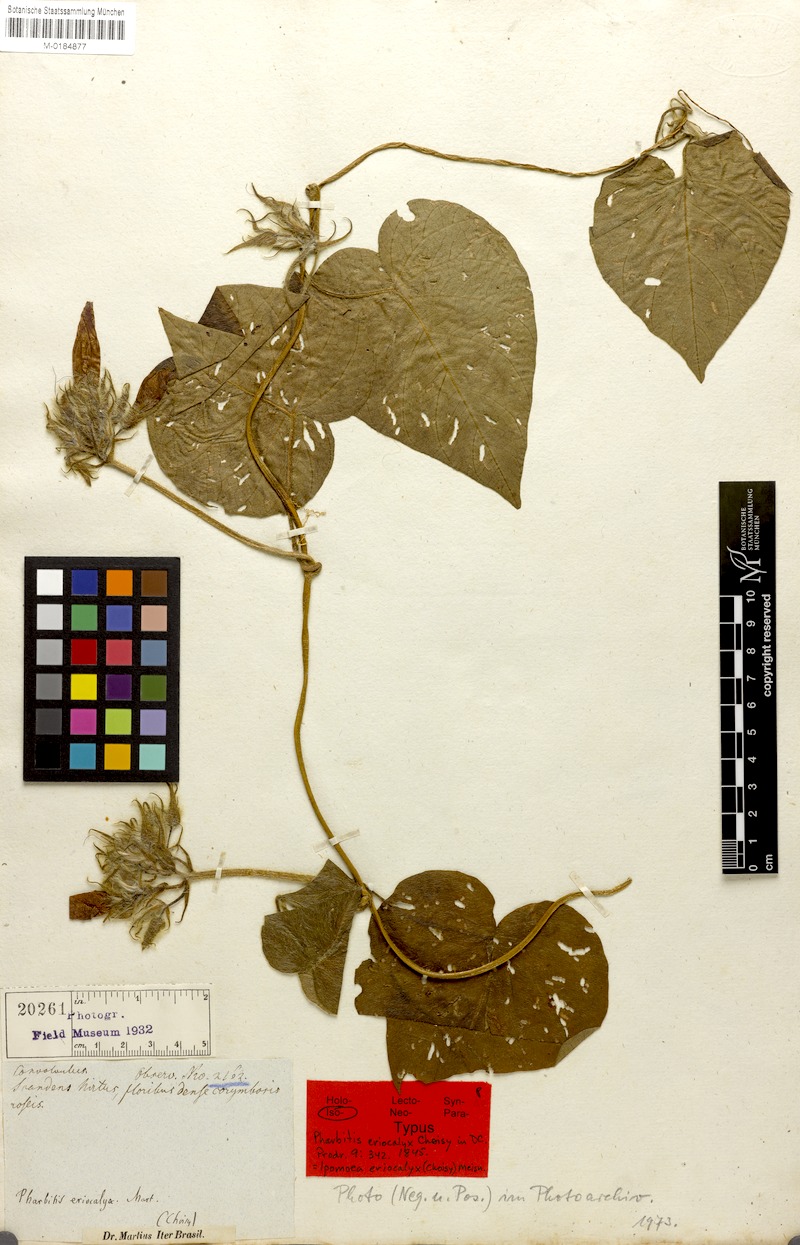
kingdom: Plantae
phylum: Tracheophyta
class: Magnoliopsida
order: Solanales
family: Convolvulaceae
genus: Ipomoea
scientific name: Ipomoea eriocalyx
